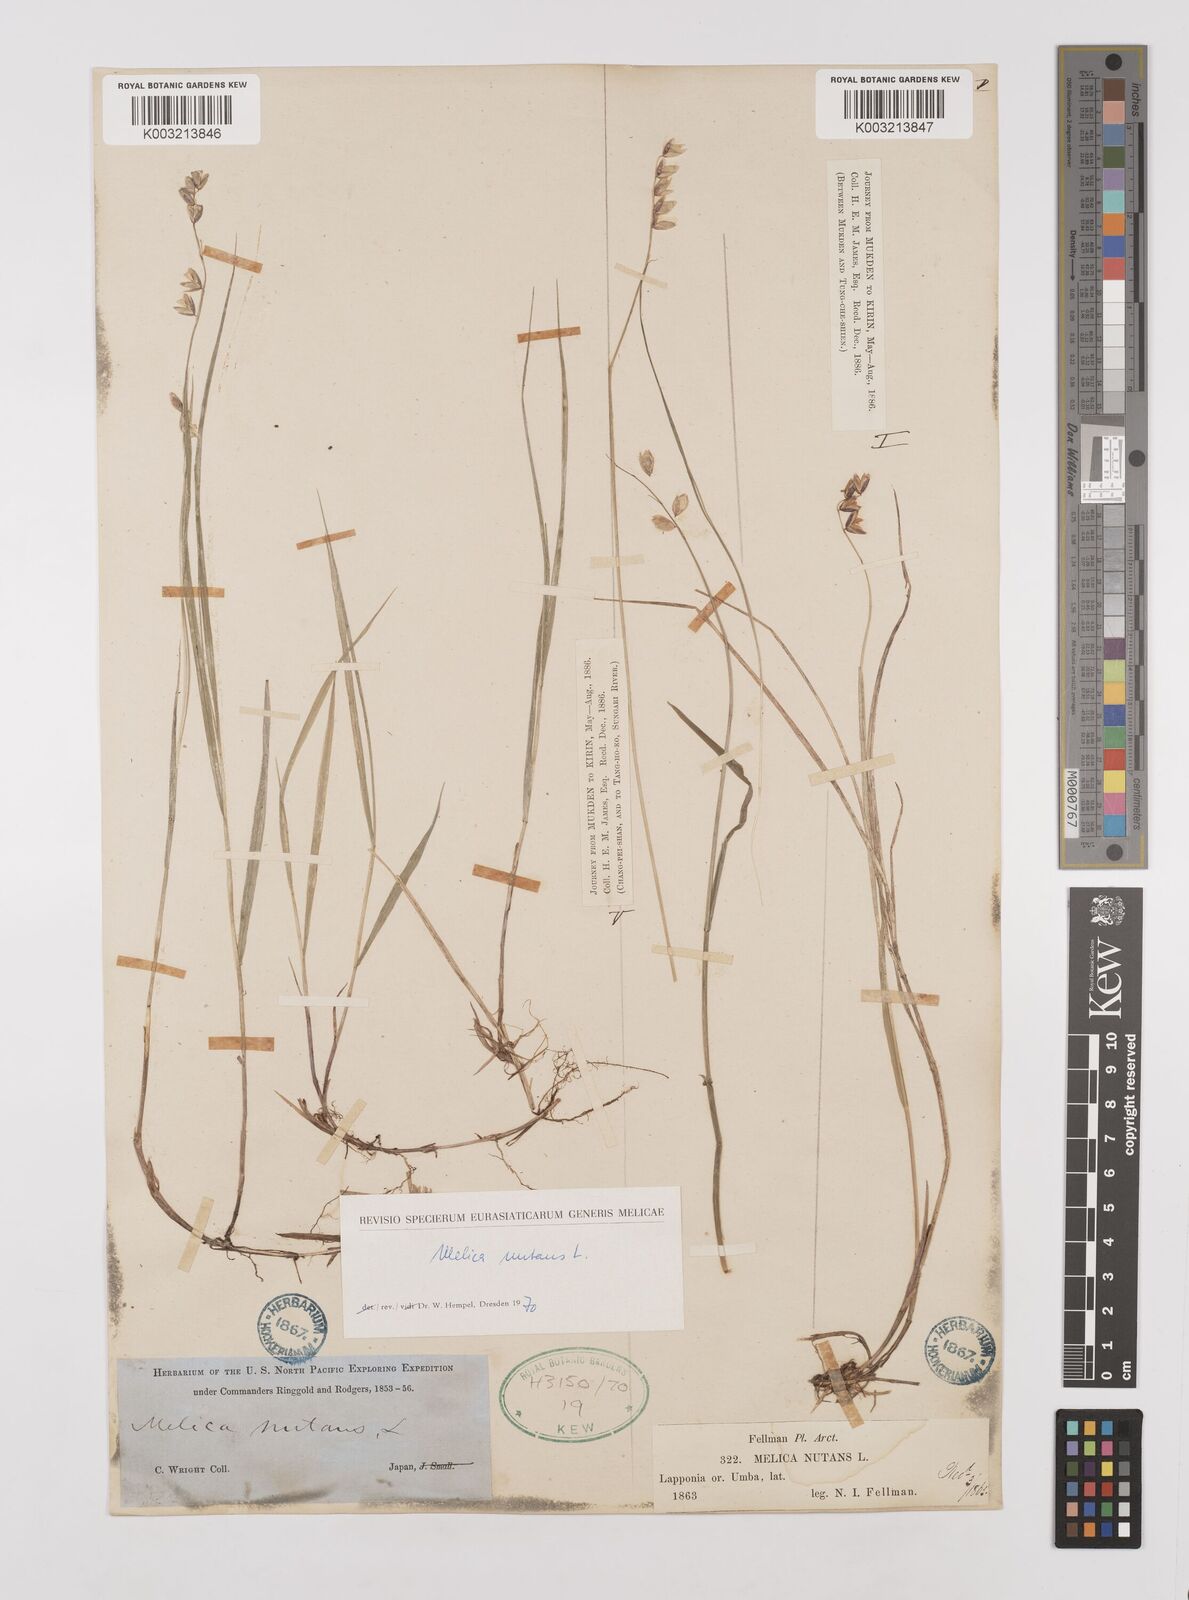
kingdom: Plantae
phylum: Tracheophyta
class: Liliopsida
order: Poales
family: Poaceae
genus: Melica
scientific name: Melica nutans
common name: Mountain melick
